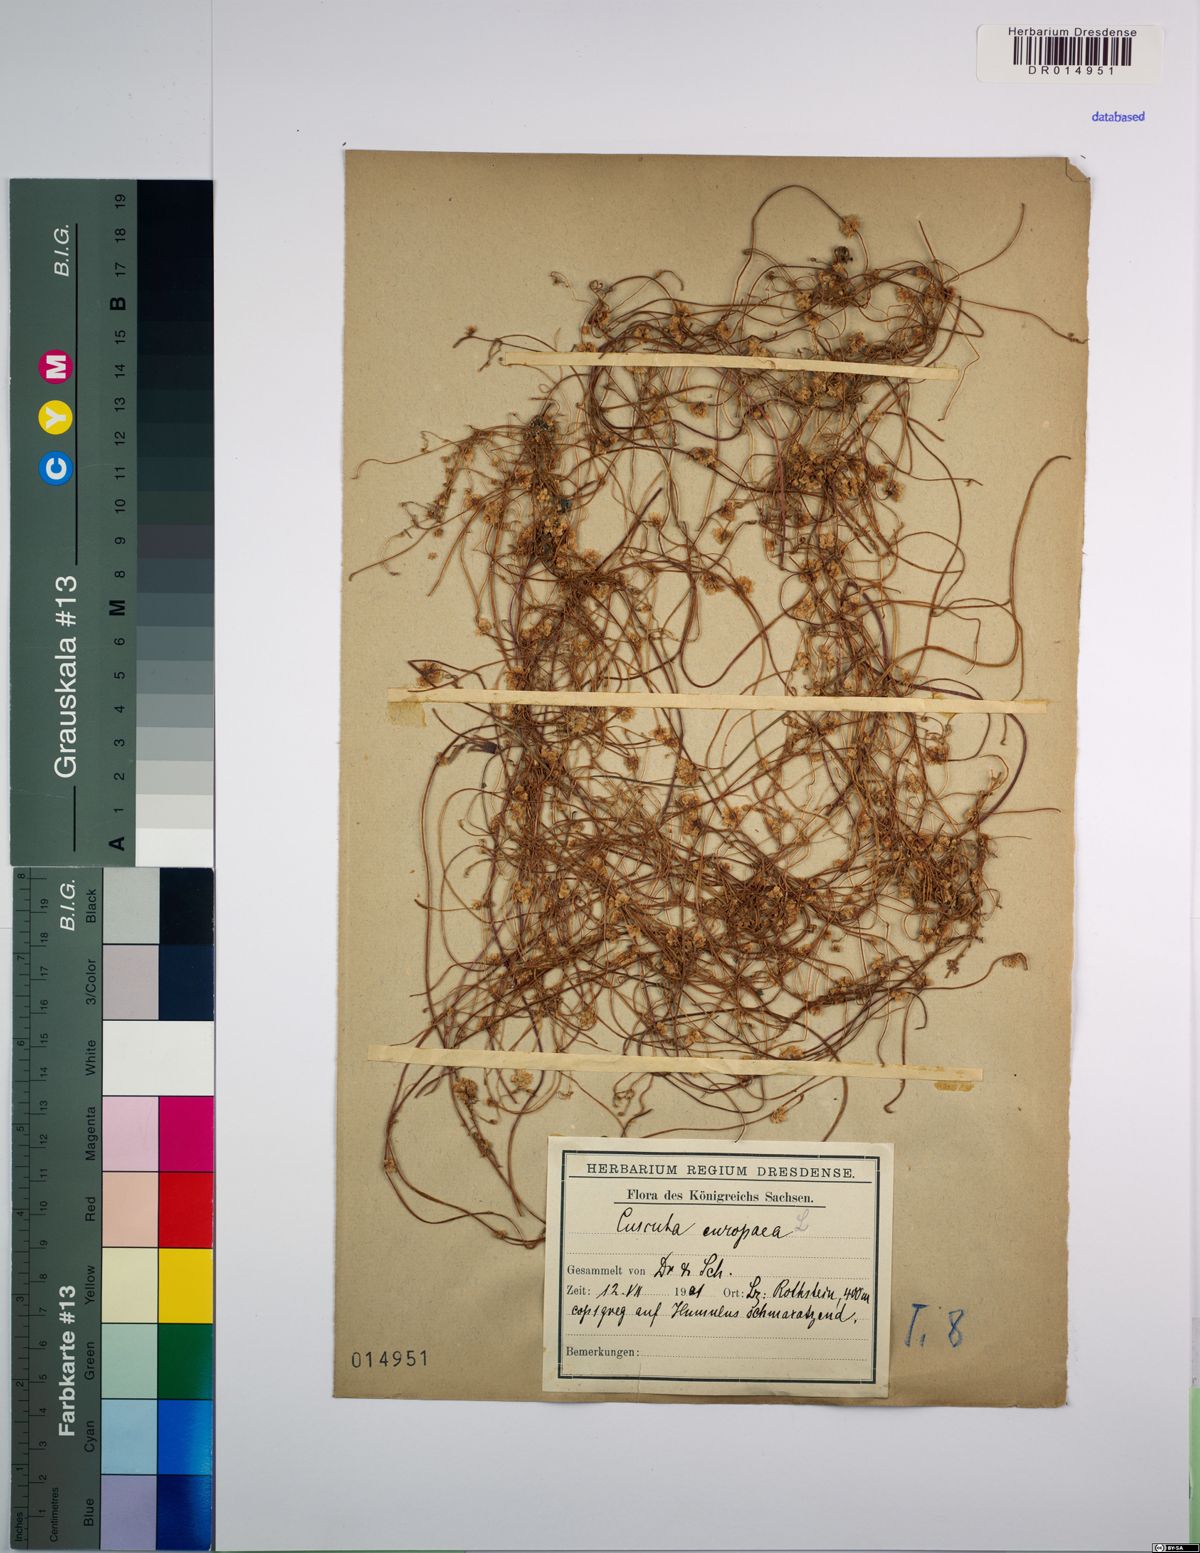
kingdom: Plantae
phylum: Tracheophyta
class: Magnoliopsida
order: Solanales
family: Convolvulaceae
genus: Cuscuta
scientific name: Cuscuta europaea
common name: Greater dodder
